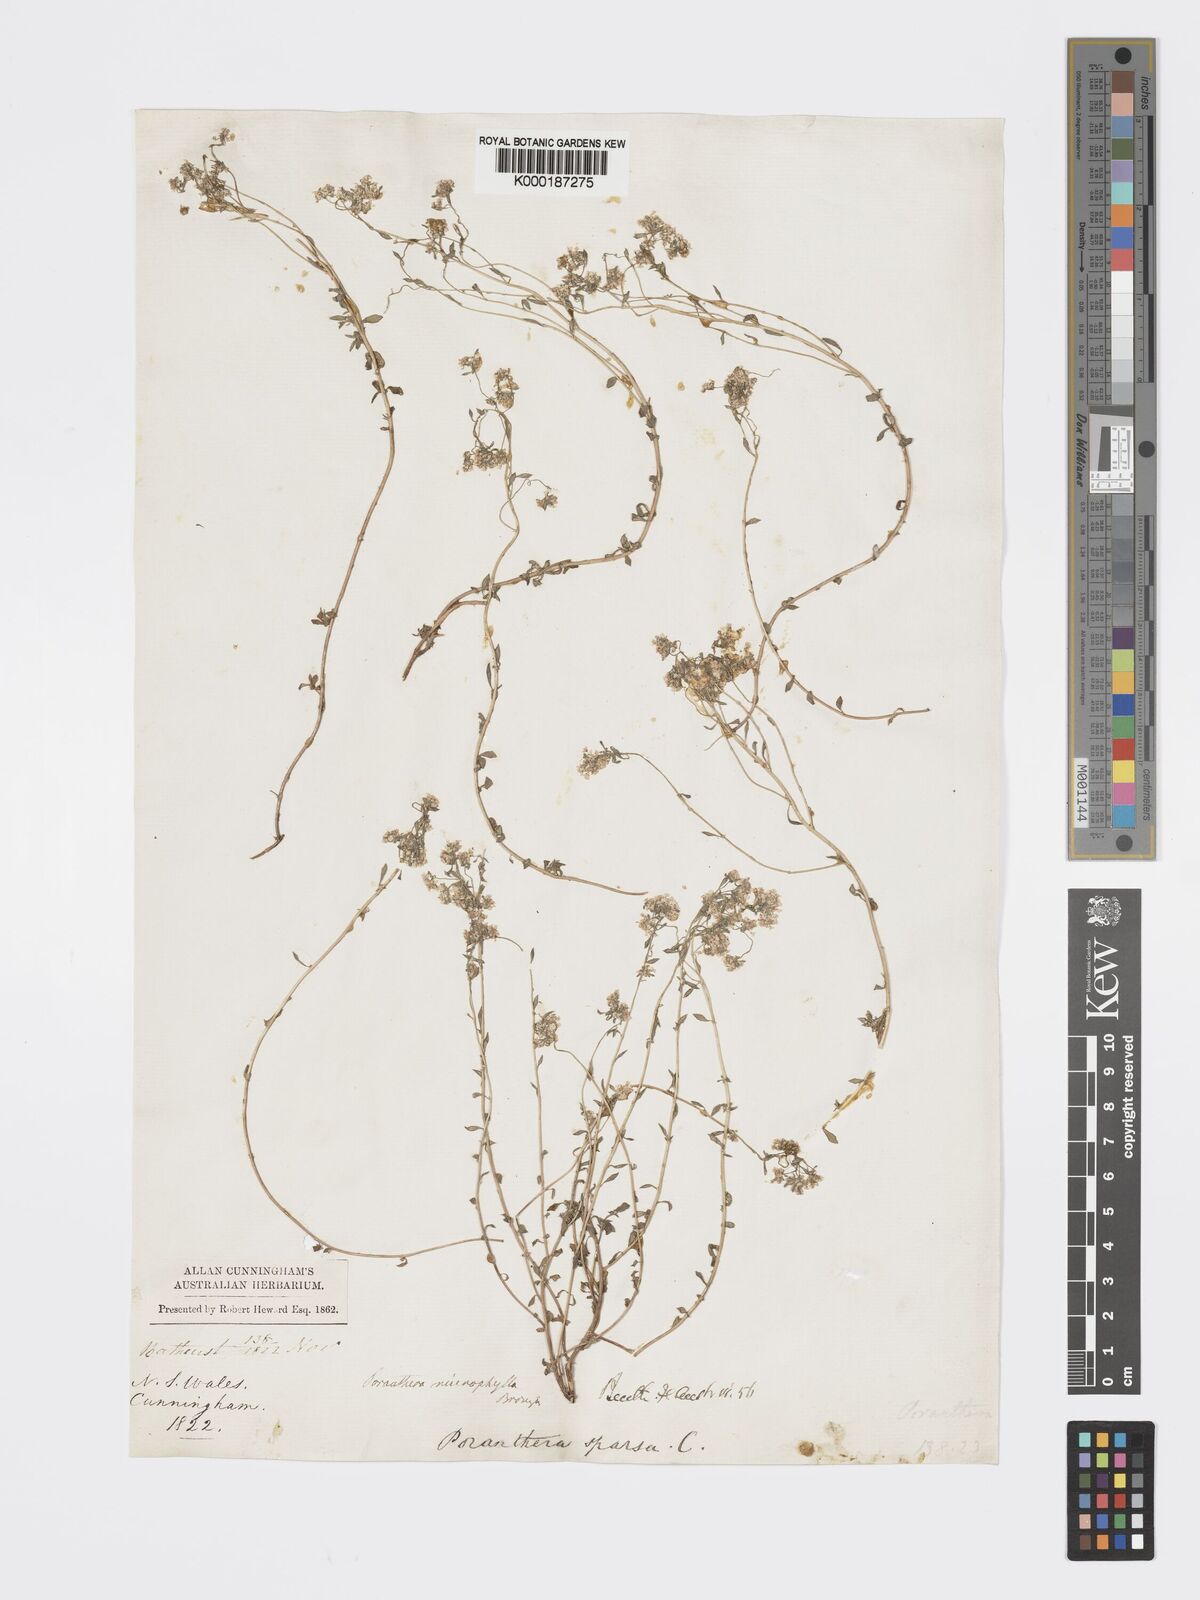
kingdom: Plantae
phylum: Tracheophyta
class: Magnoliopsida
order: Malpighiales
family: Phyllanthaceae
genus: Poranthera
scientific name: Poranthera microphylla
